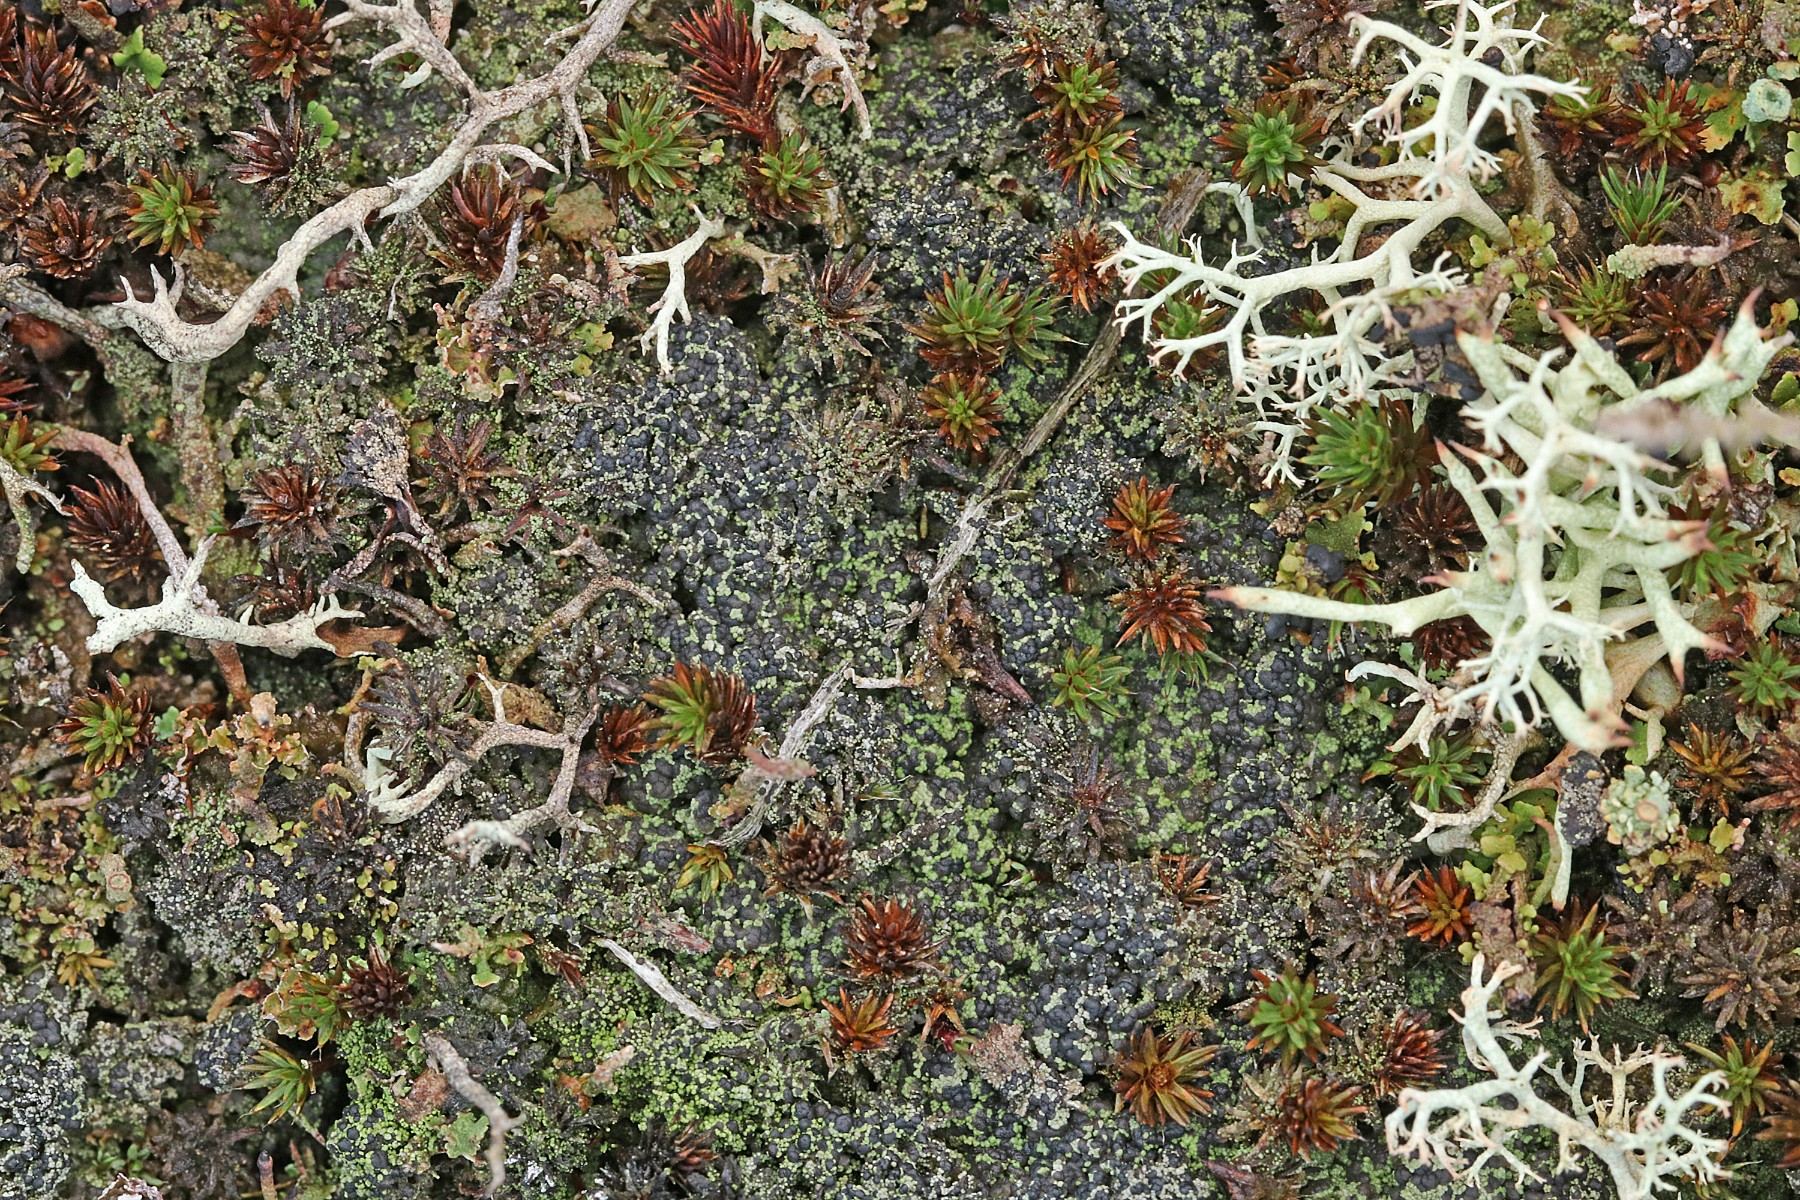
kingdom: Fungi
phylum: Ascomycota
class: Lecanoromycetes
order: Lecanorales
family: Byssolomataceae
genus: Micarea
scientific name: Micarea lignaria
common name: tørve-knaplav
